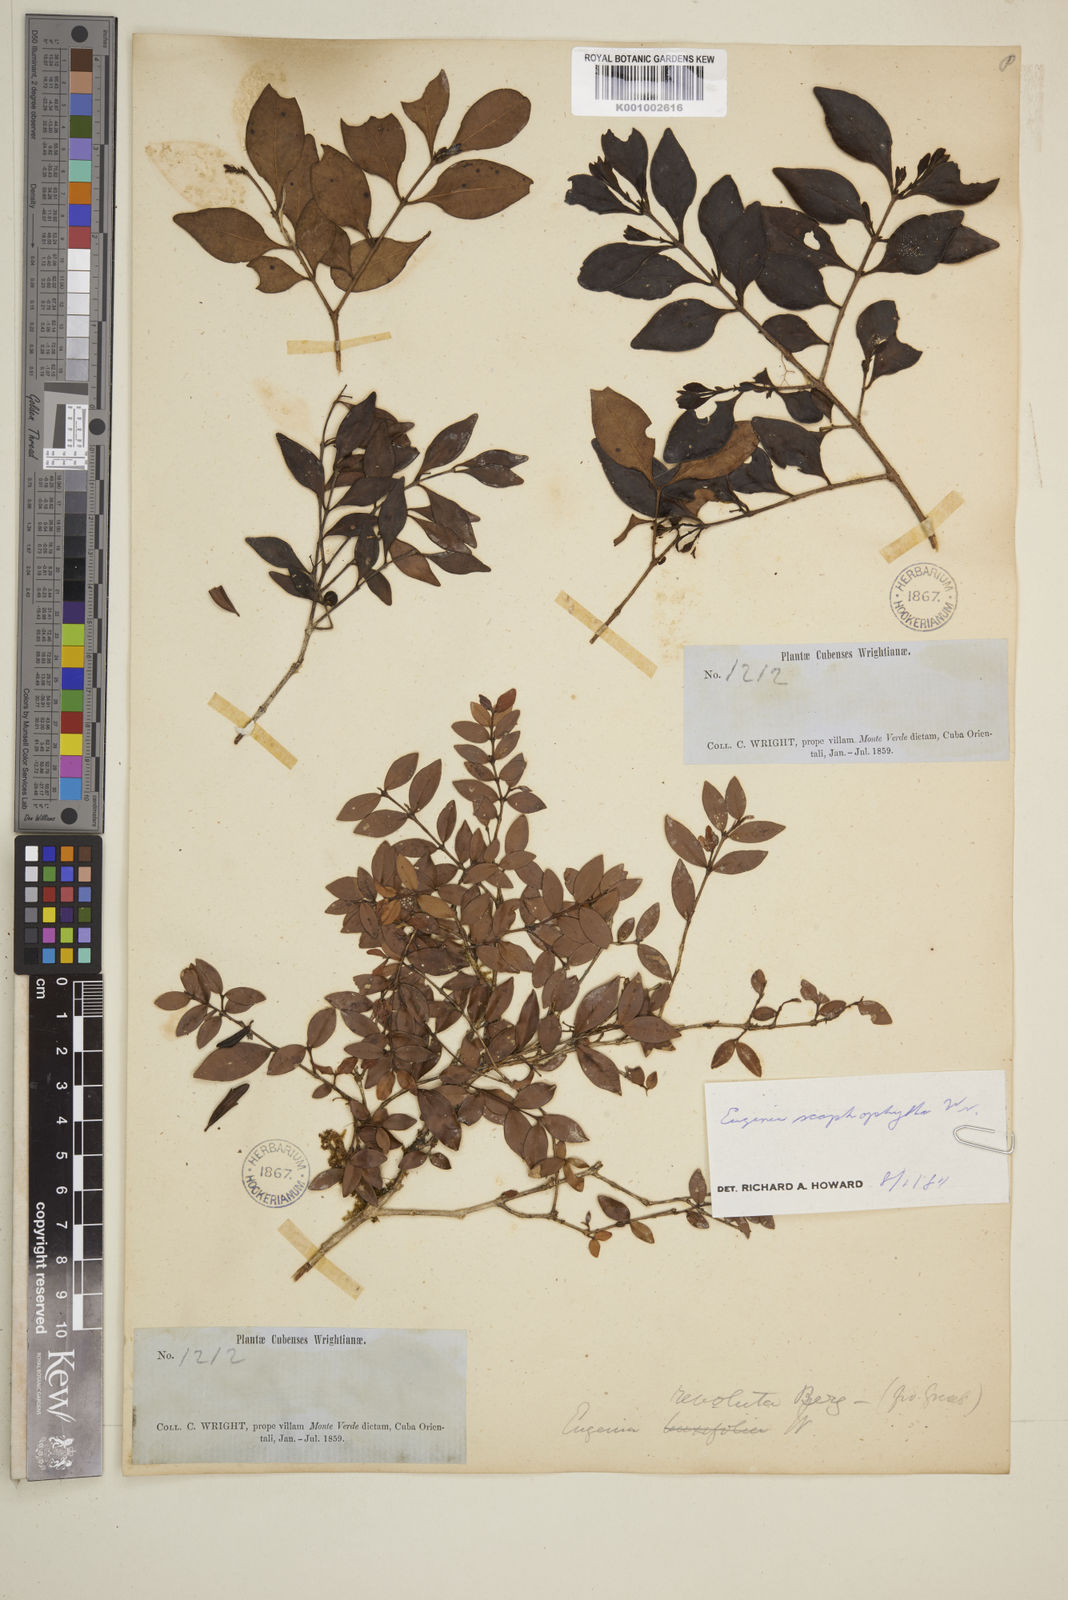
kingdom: Plantae
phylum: Tracheophyta
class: Magnoliopsida
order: Myrtales
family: Myrtaceae
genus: Eugenia
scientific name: Eugenia oxysepala
